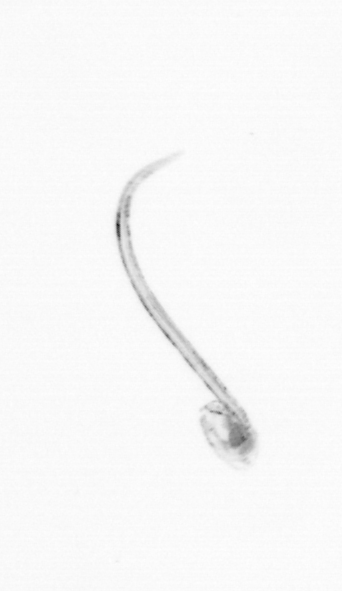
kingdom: Animalia
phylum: Chordata
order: Copelata
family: Fritillariidae
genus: Appendicularia
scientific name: Appendicularia
